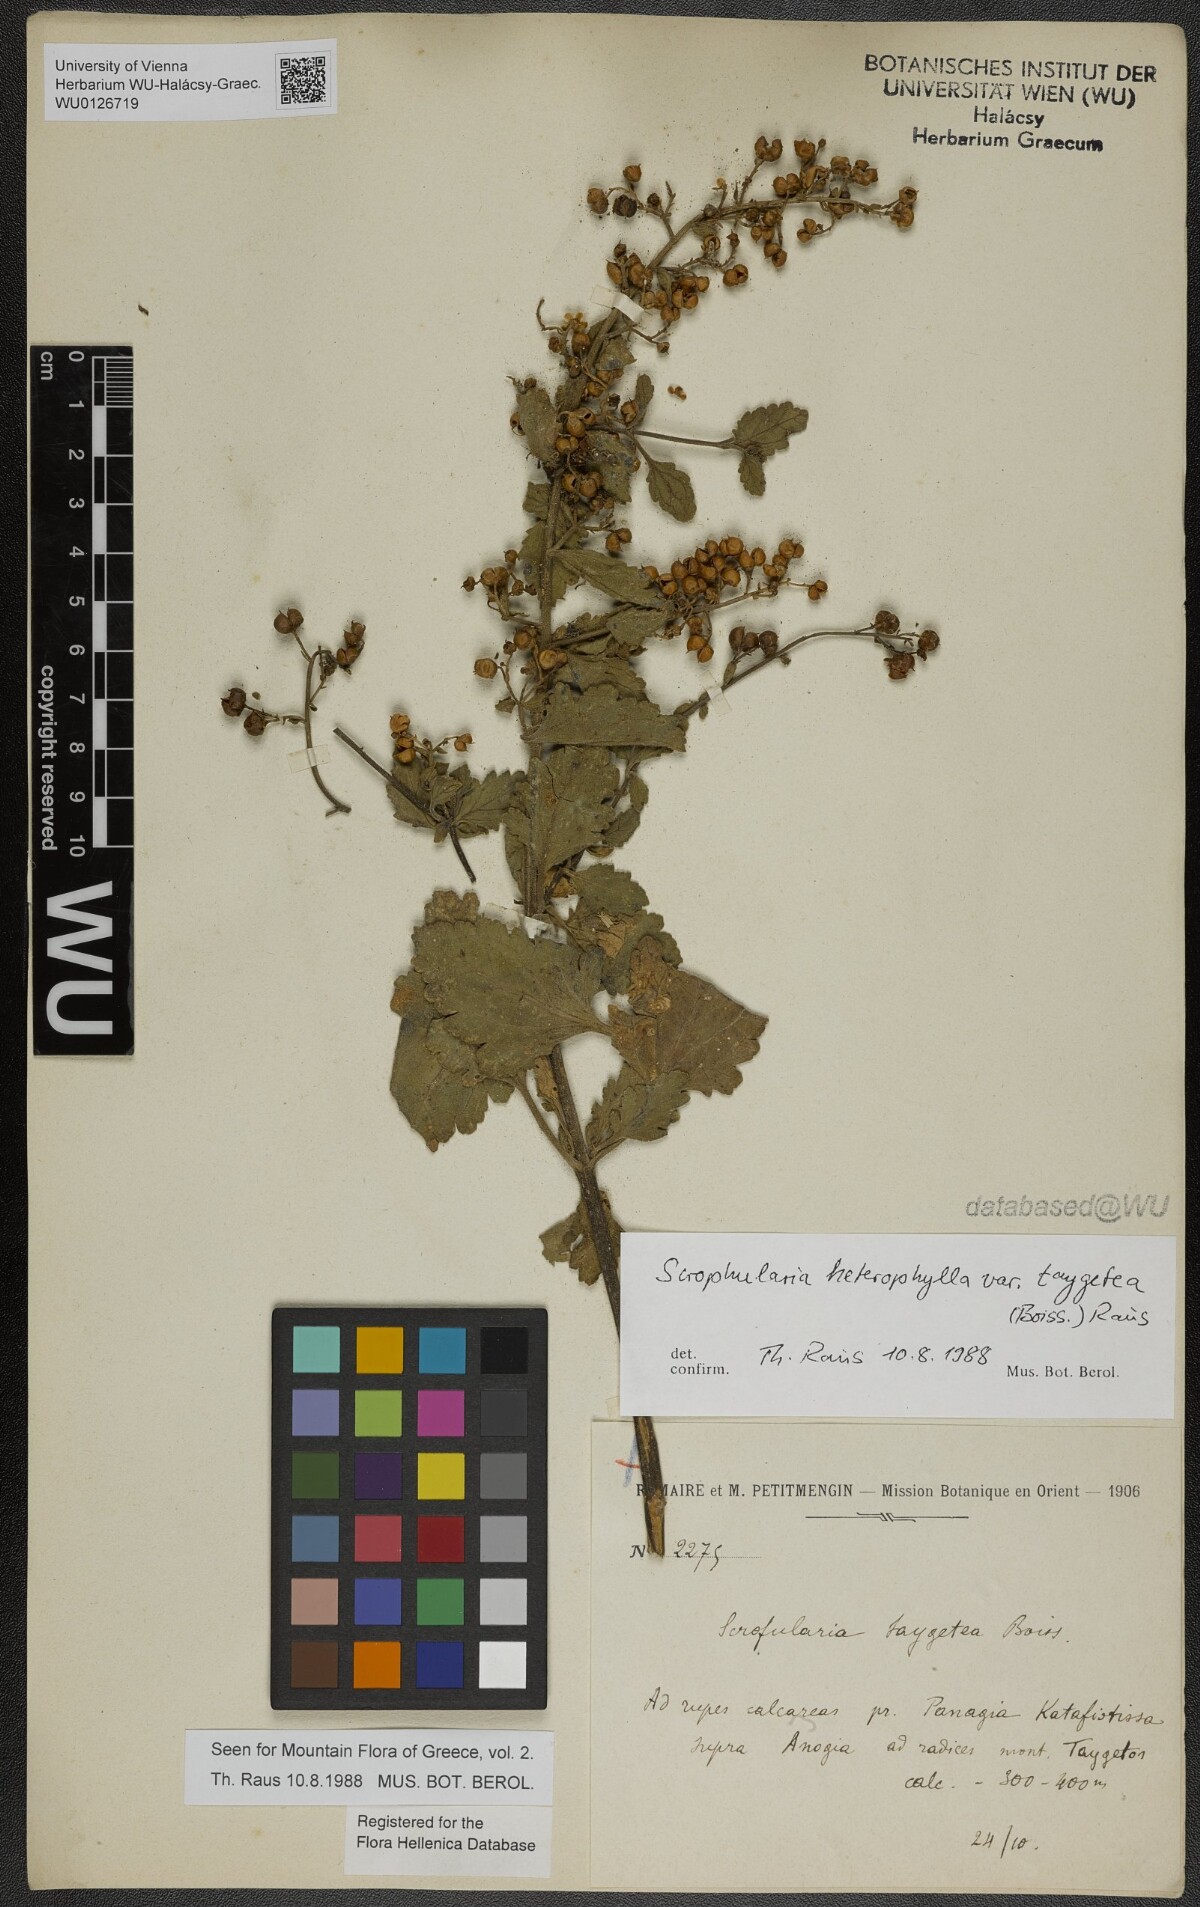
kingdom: Plantae
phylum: Tracheophyta
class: Magnoliopsida
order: Lamiales
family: Scrophulariaceae
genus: Scrophularia
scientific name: Scrophularia heterophylla
